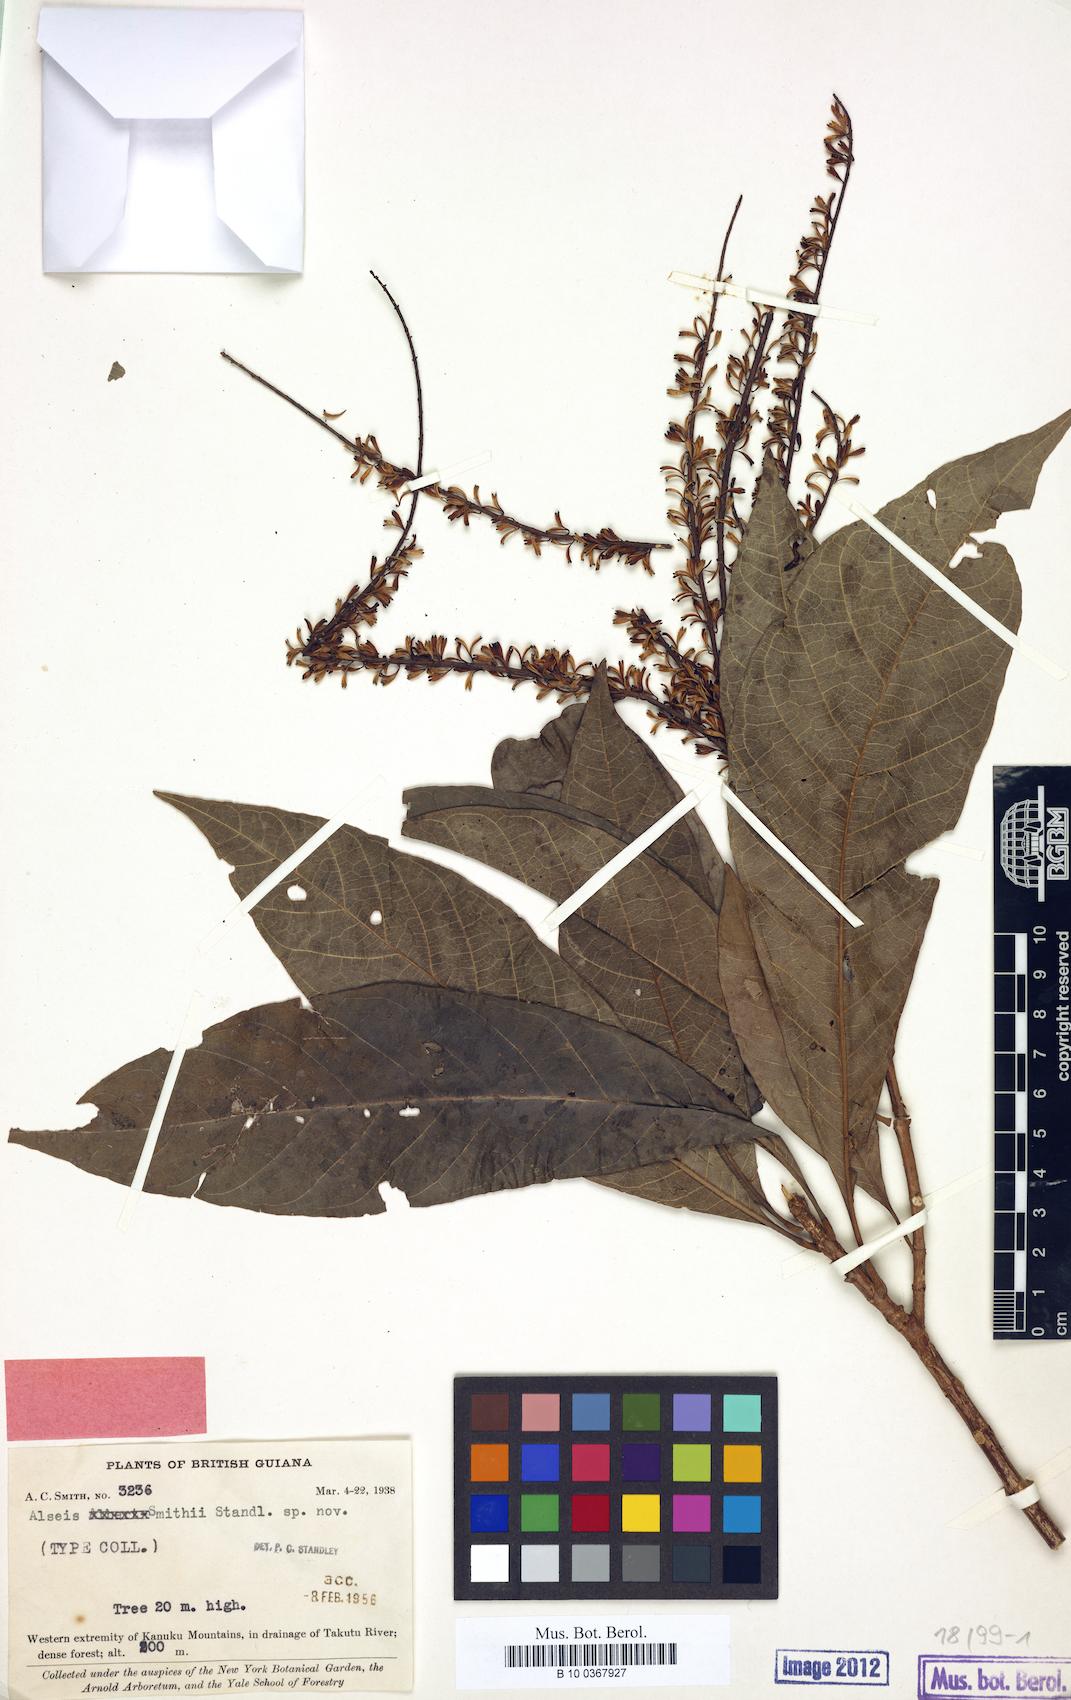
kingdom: Plantae
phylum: Tracheophyta
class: Magnoliopsida
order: Gentianales
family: Rubiaceae
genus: Alseis
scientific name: Alseis smithii
